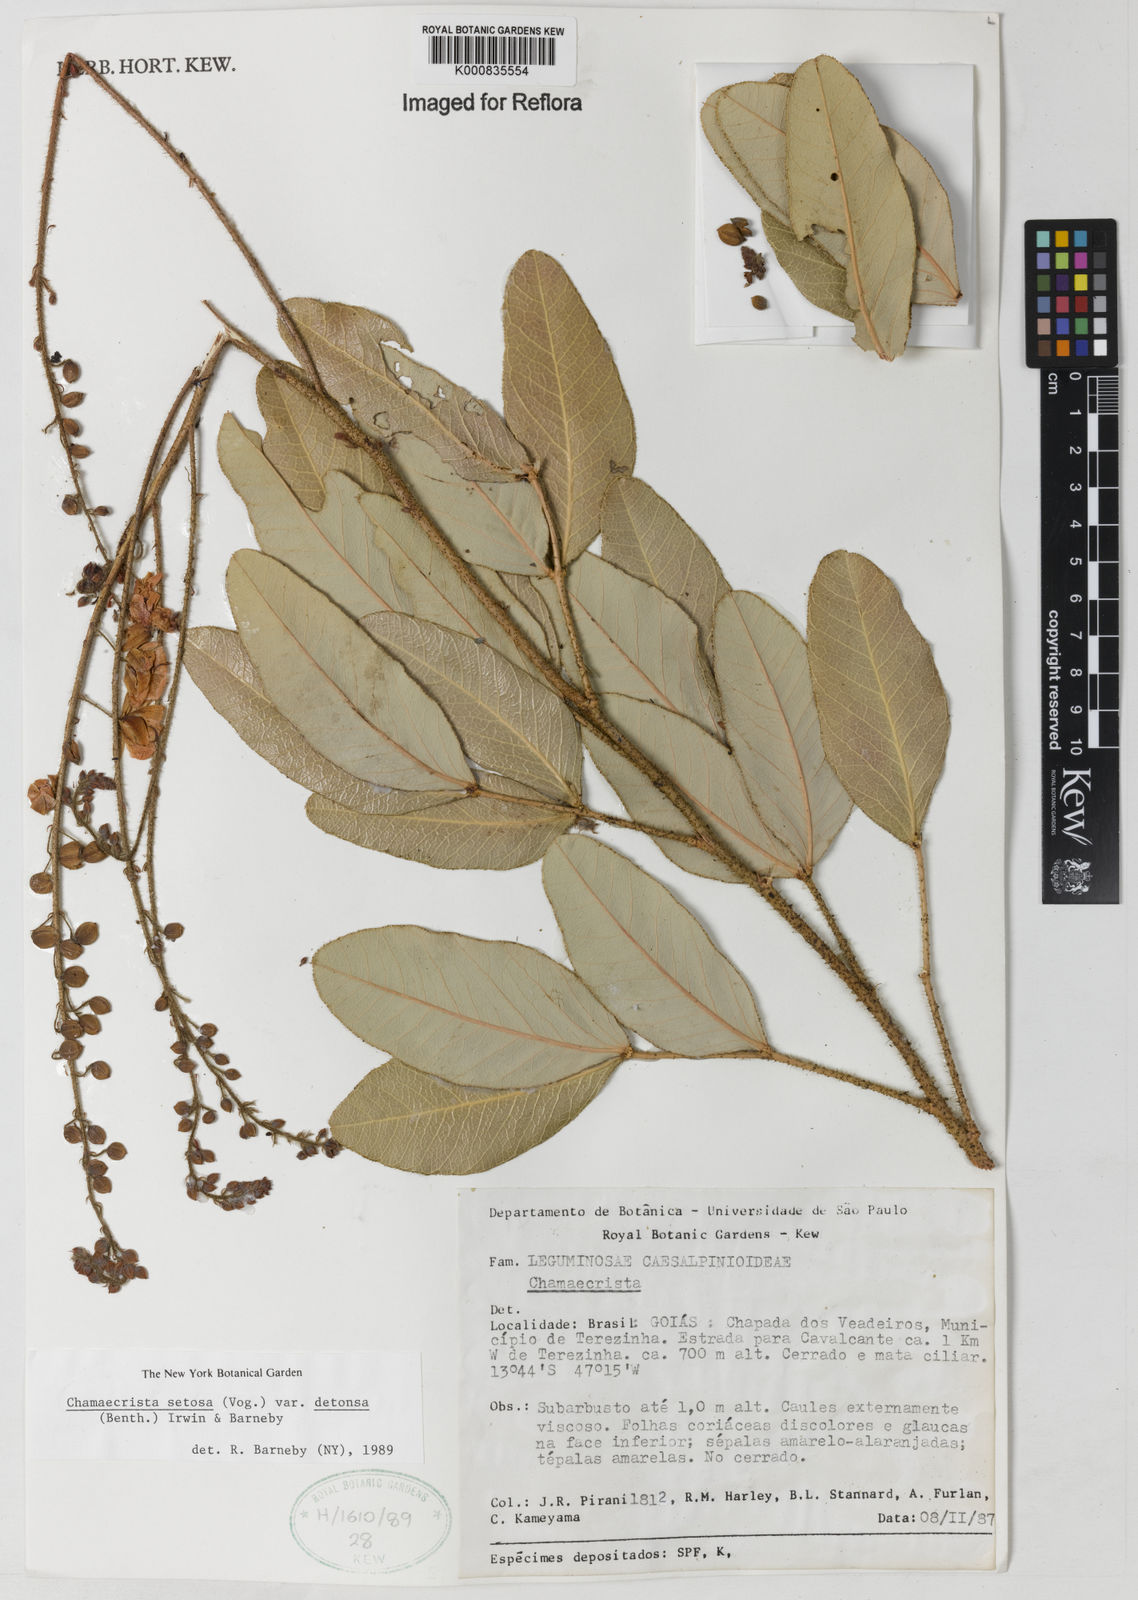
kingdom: Plantae
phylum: Tracheophyta
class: Magnoliopsida
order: Fabales
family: Fabaceae
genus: Chamaecrista
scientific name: Chamaecrista setosa
